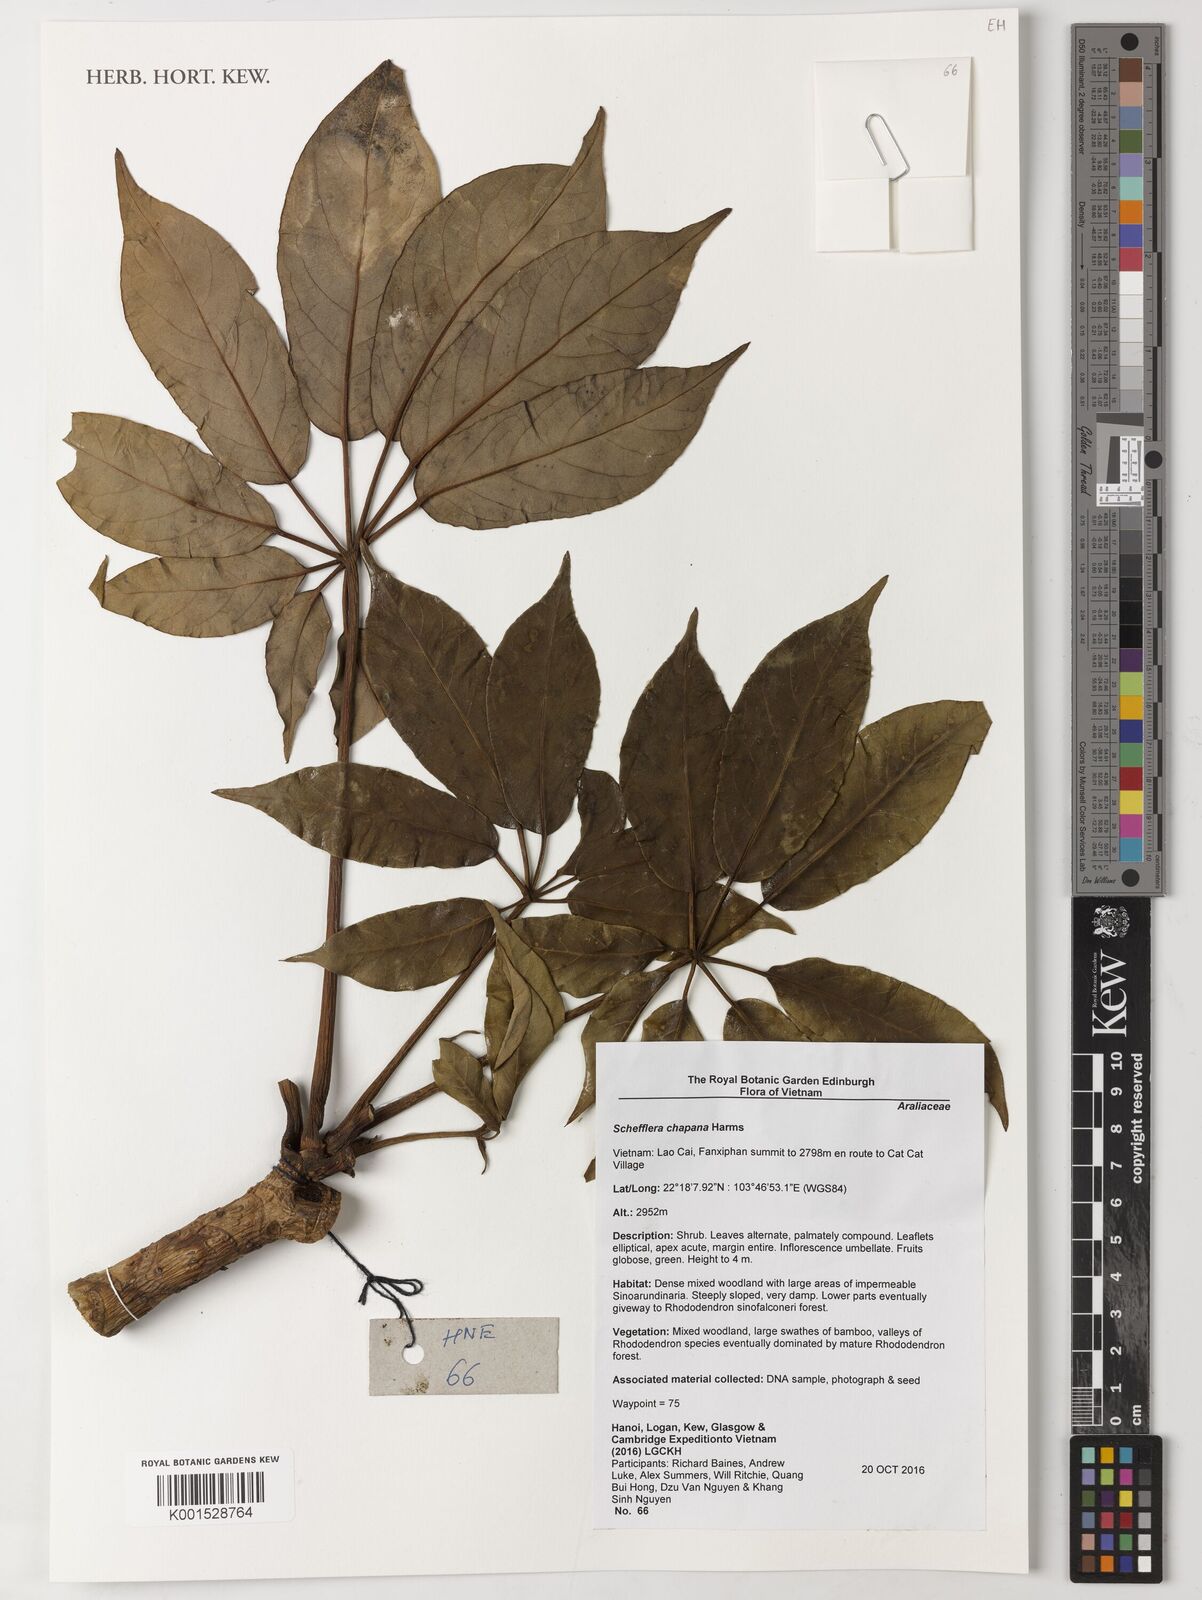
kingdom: Plantae
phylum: Tracheophyta
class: Magnoliopsida
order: Apiales
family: Araliaceae
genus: Heptapleurum
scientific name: Heptapleurum chapanum
